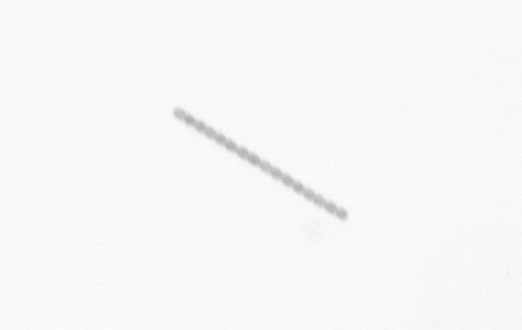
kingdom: Chromista
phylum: Ochrophyta
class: Bacillariophyceae
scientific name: Bacillariophyceae
